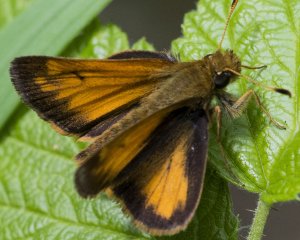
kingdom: Animalia
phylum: Arthropoda
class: Insecta
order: Lepidoptera
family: Hesperiidae
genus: Lon
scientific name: Lon hobomok
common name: Hobomok Skipper
